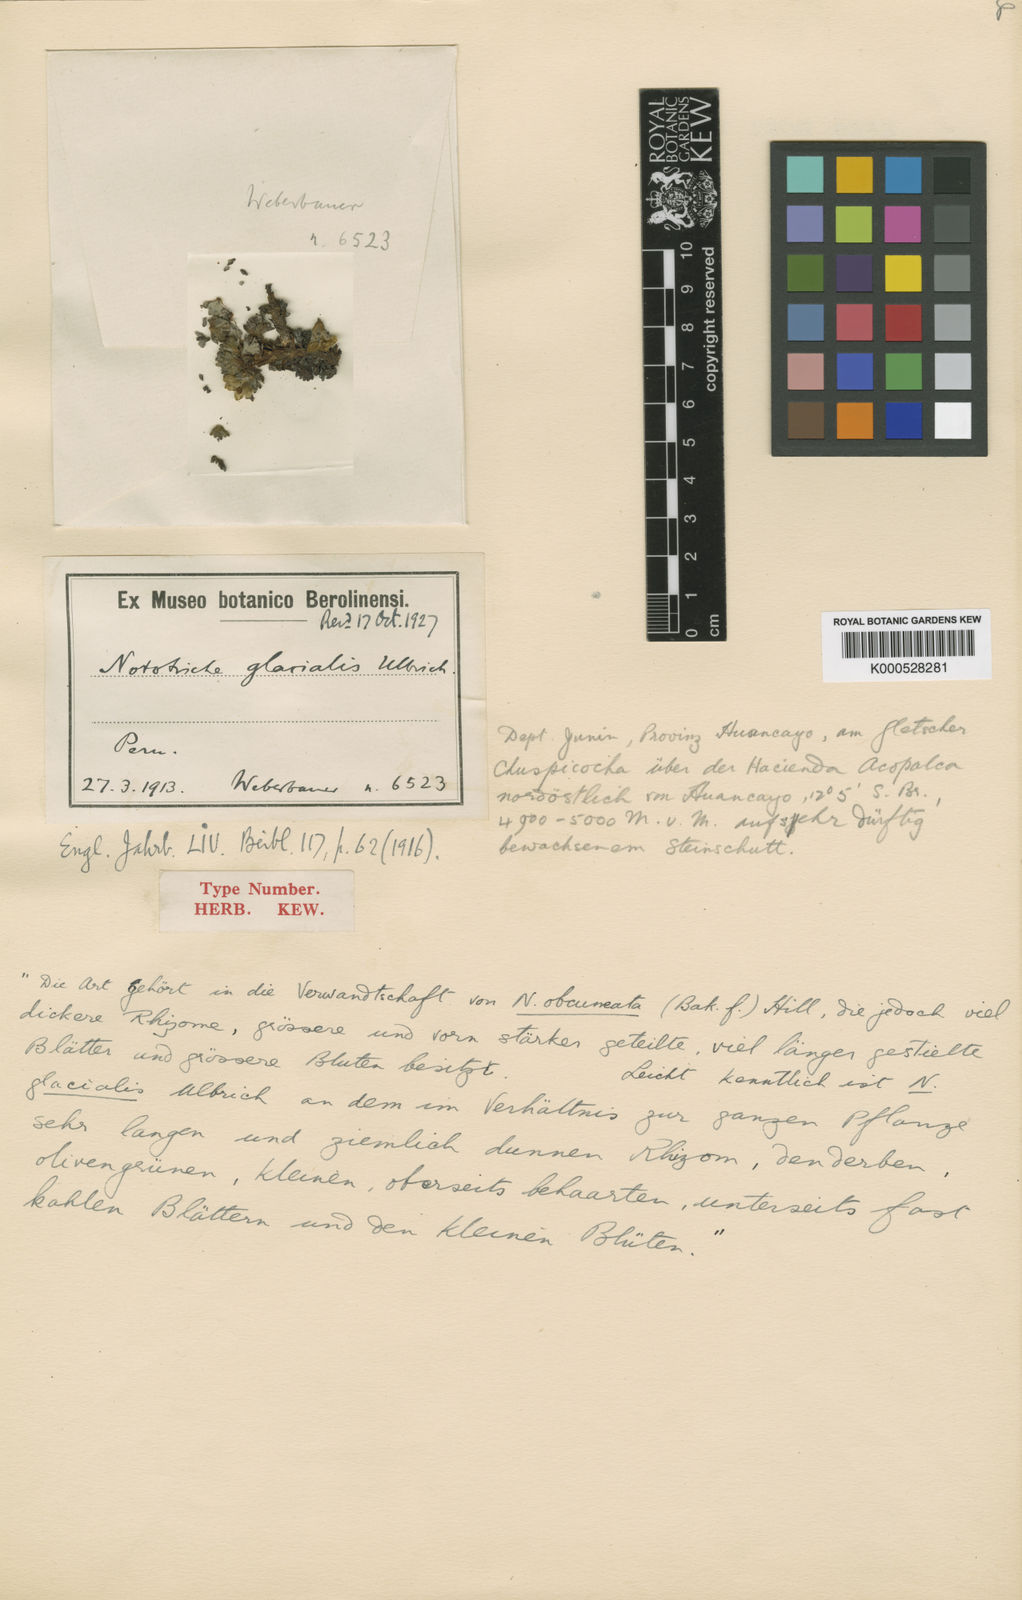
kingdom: Plantae
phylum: Tracheophyta
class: Magnoliopsida
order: Malvales
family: Malvaceae
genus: Nototriche
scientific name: Nototriche glacialis
